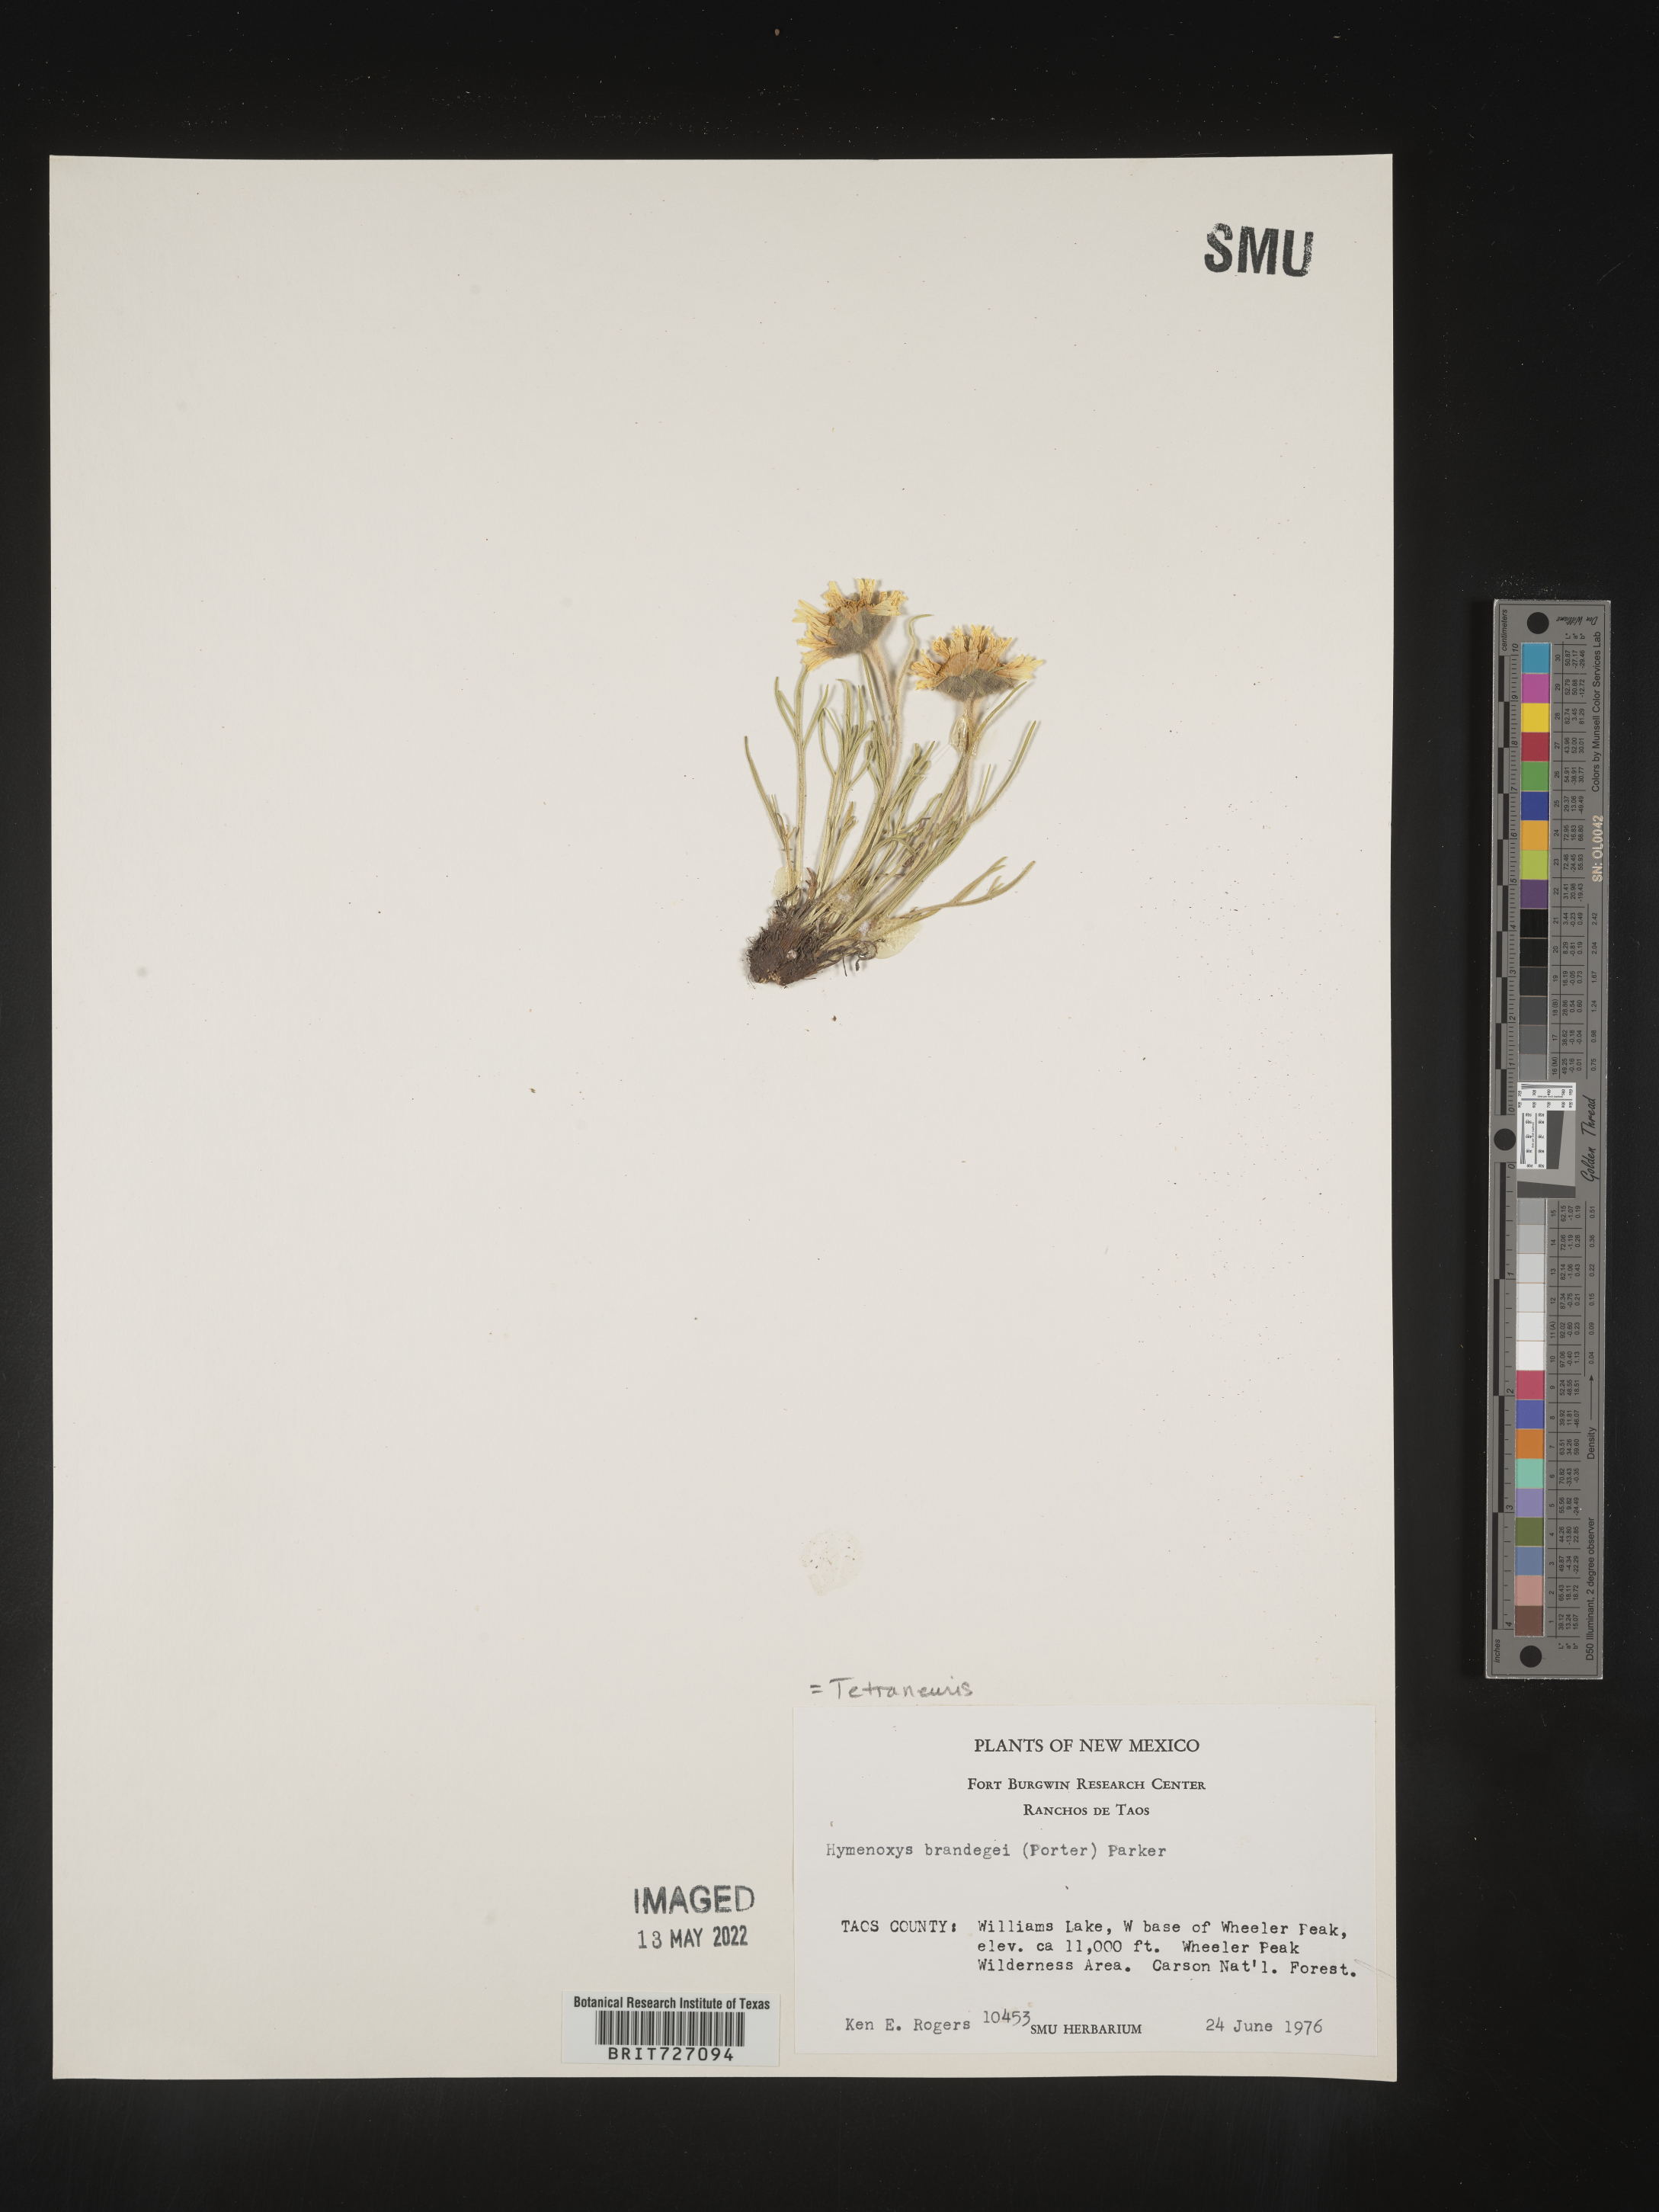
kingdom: Plantae
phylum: Tracheophyta
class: Magnoliopsida
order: Asterales
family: Asteraceae
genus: Hymenoxys
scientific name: Hymenoxys brandegeei
